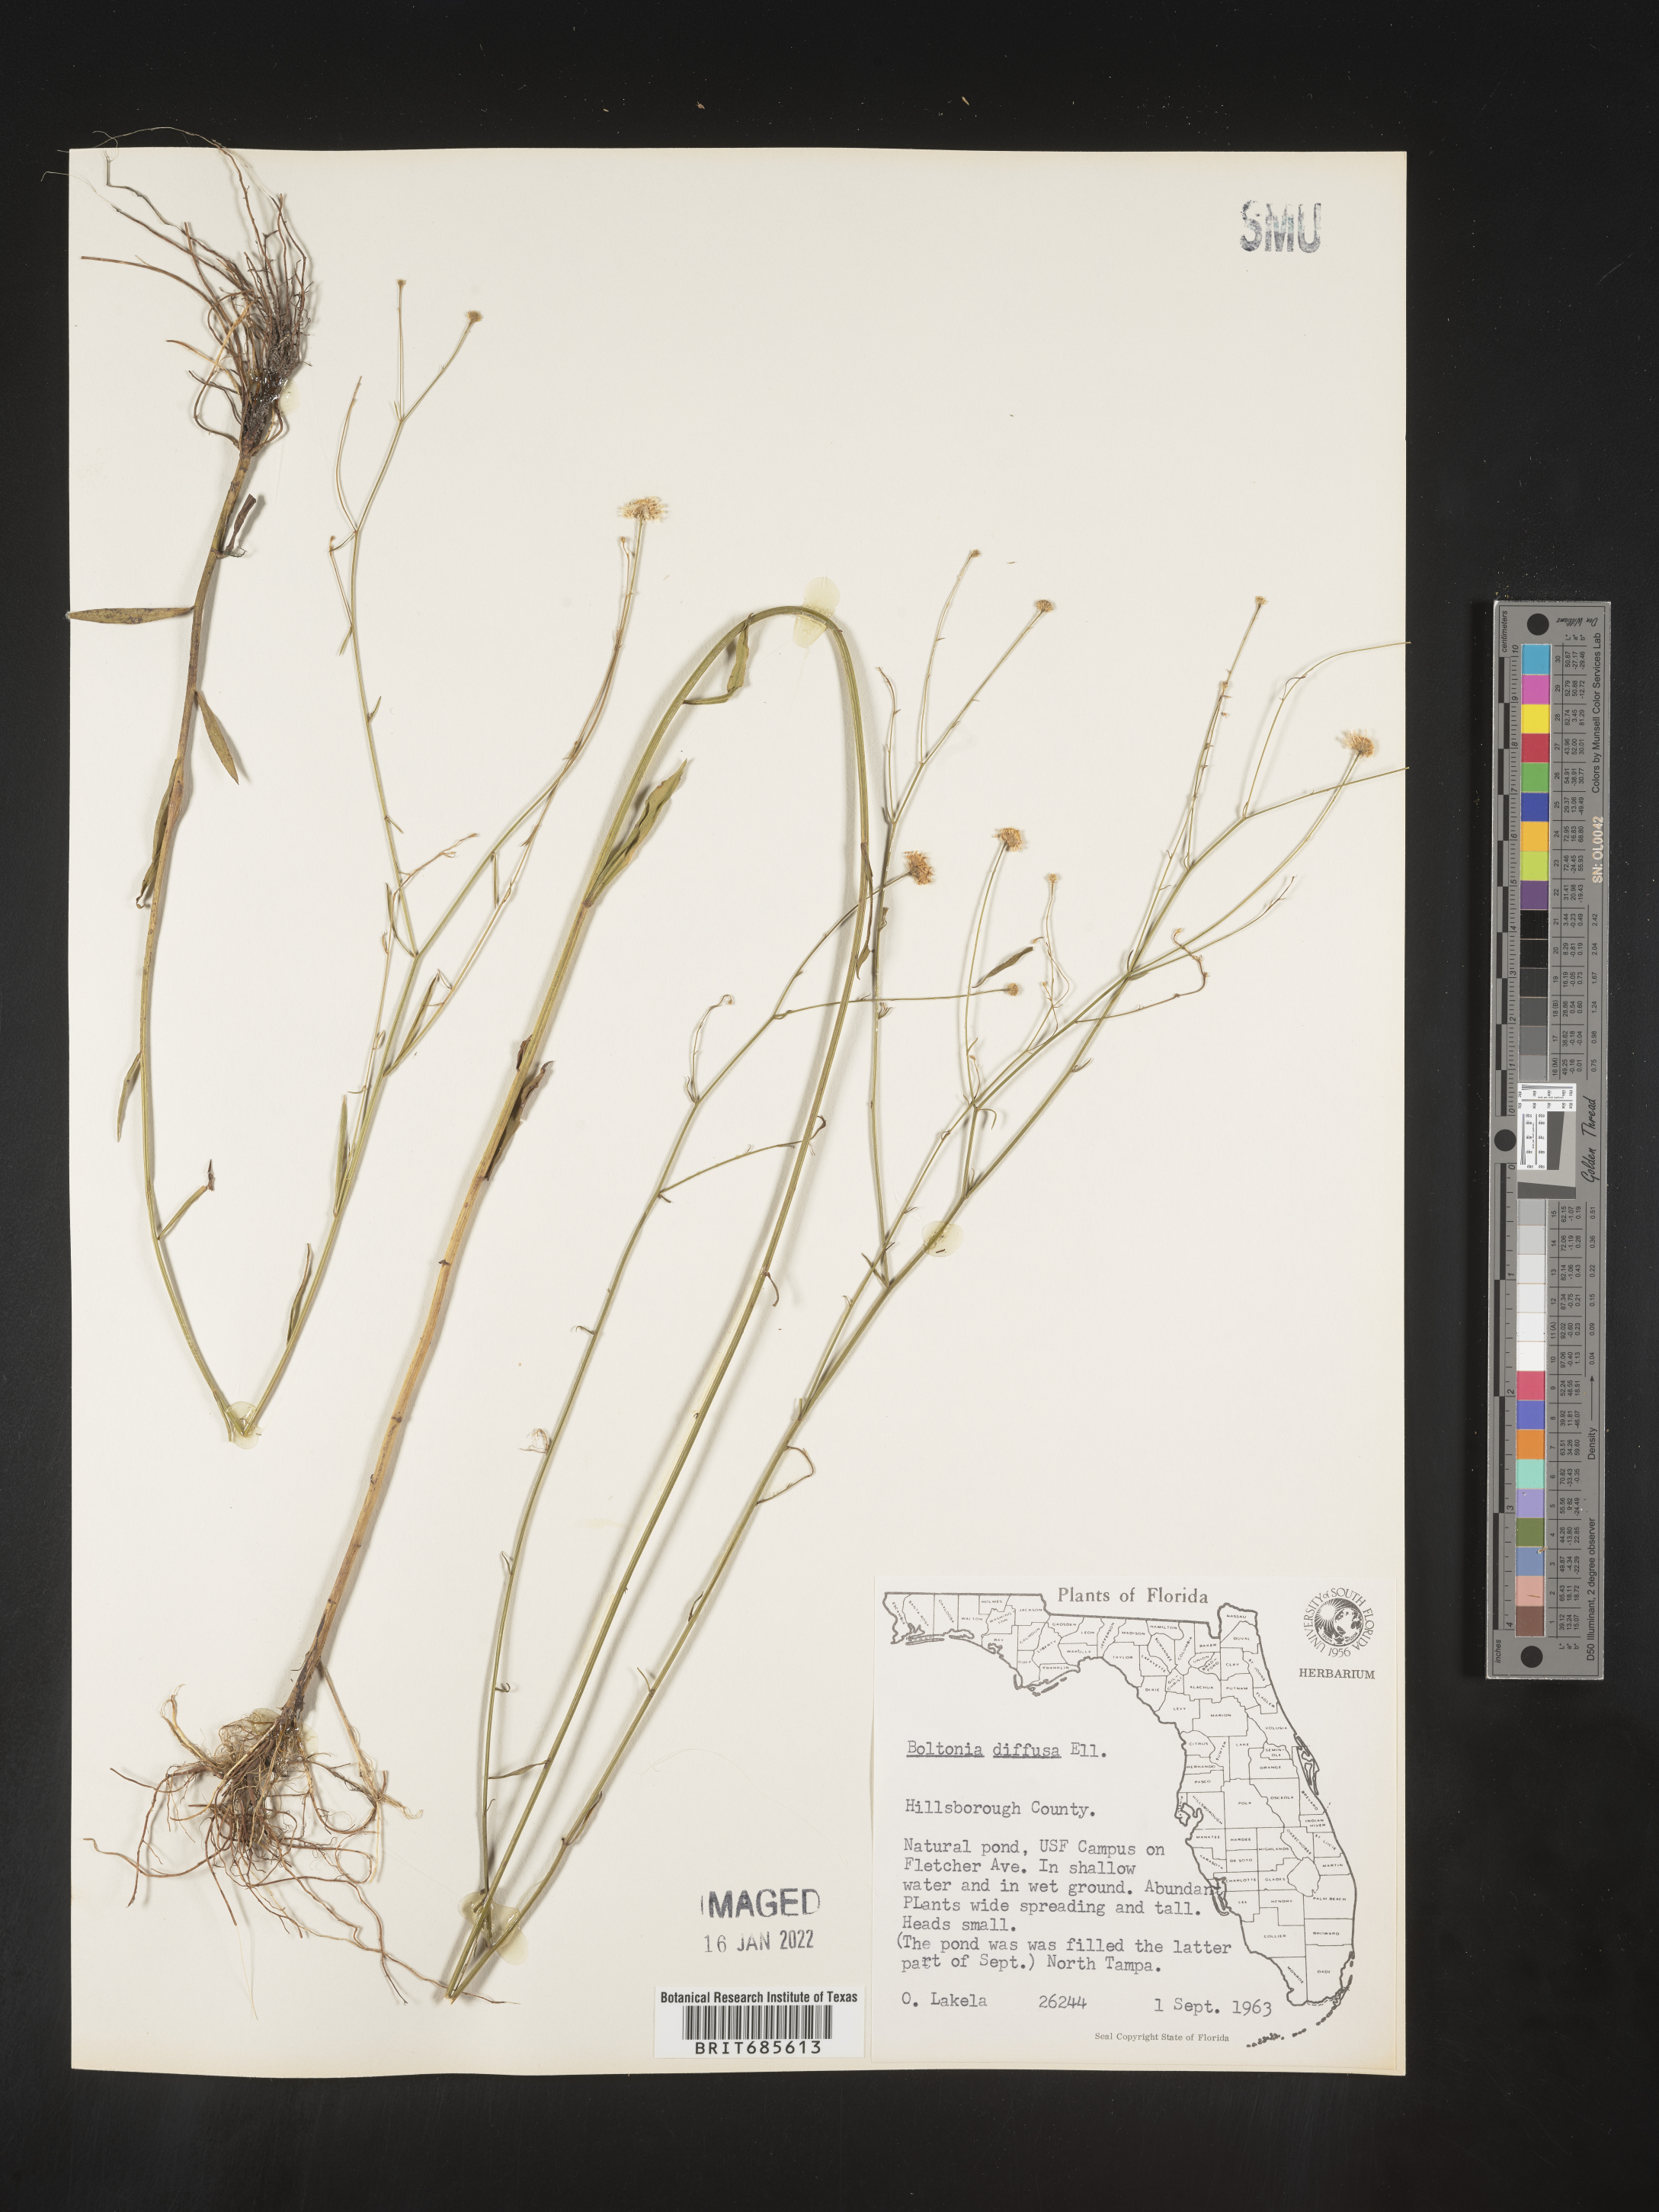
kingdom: Plantae
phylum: Tracheophyta
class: Magnoliopsida
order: Asterales
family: Asteraceae
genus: Boltonia
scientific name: Boltonia diffusa
